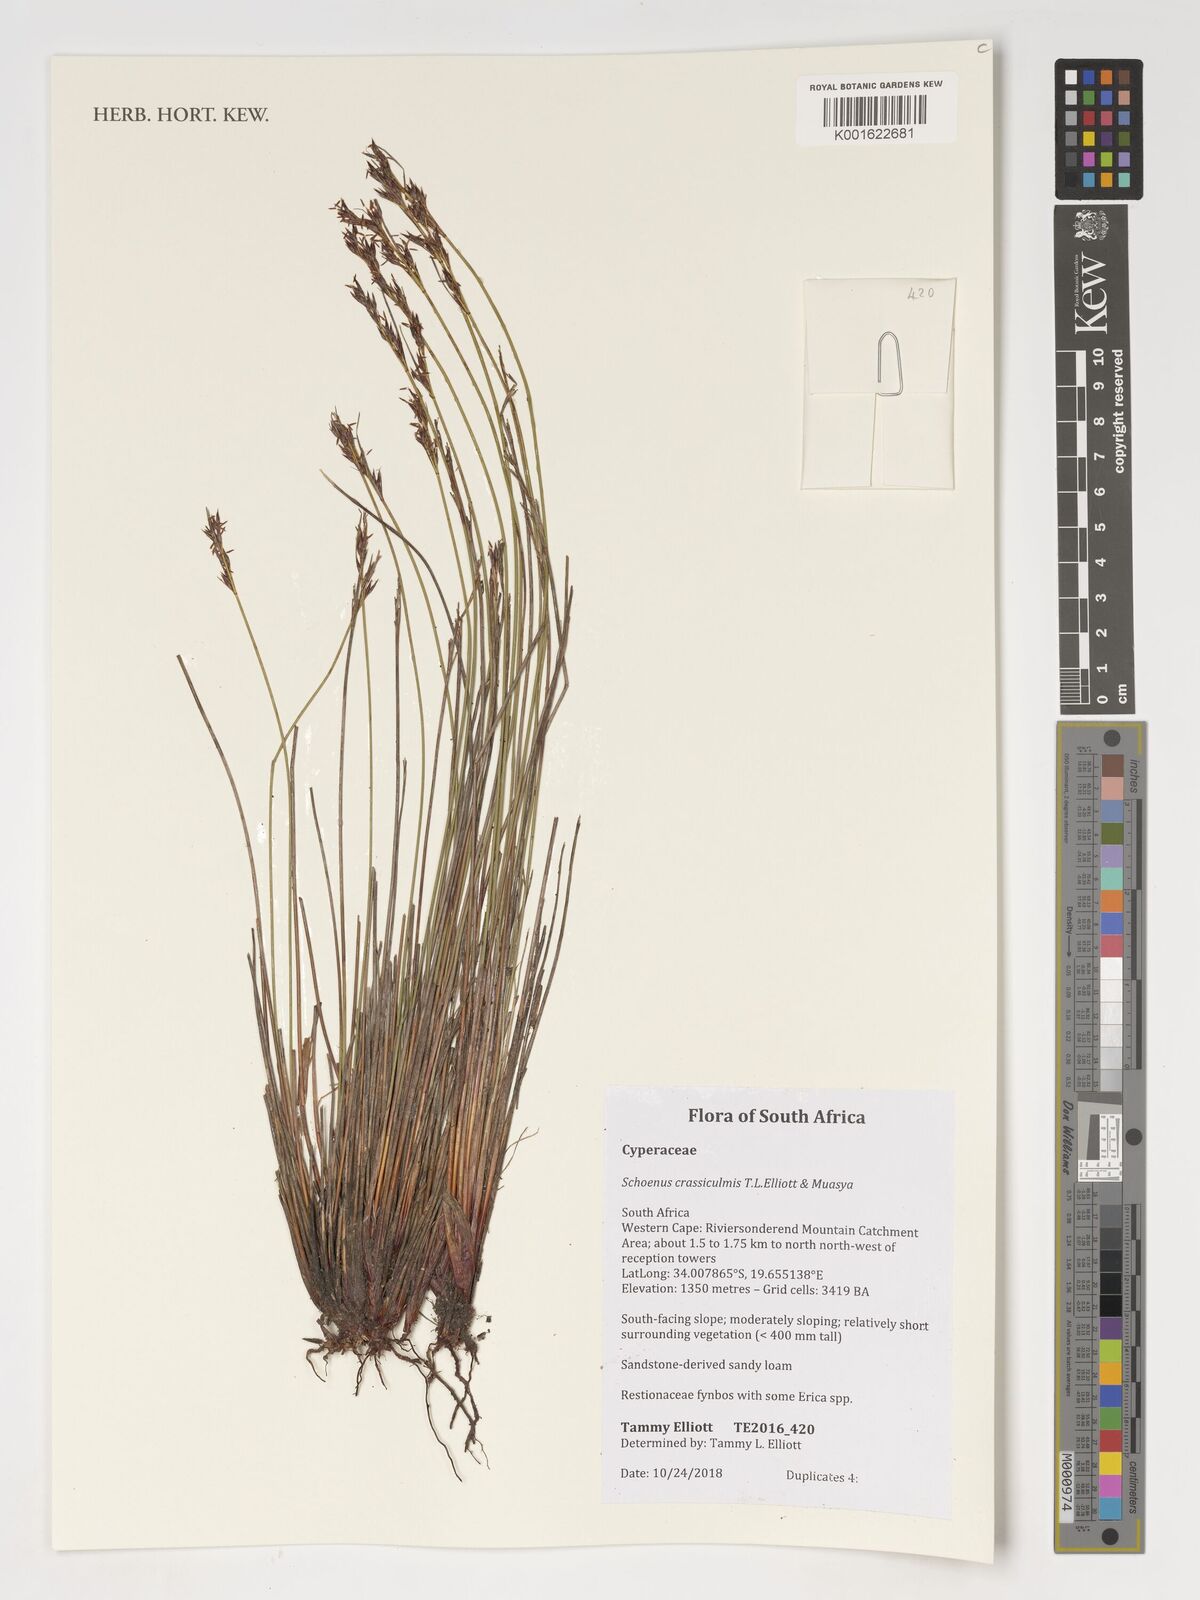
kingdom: Plantae
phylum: Tracheophyta
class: Liliopsida
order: Poales
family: Cyperaceae
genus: Schoenus
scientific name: Schoenus crassiculmis
